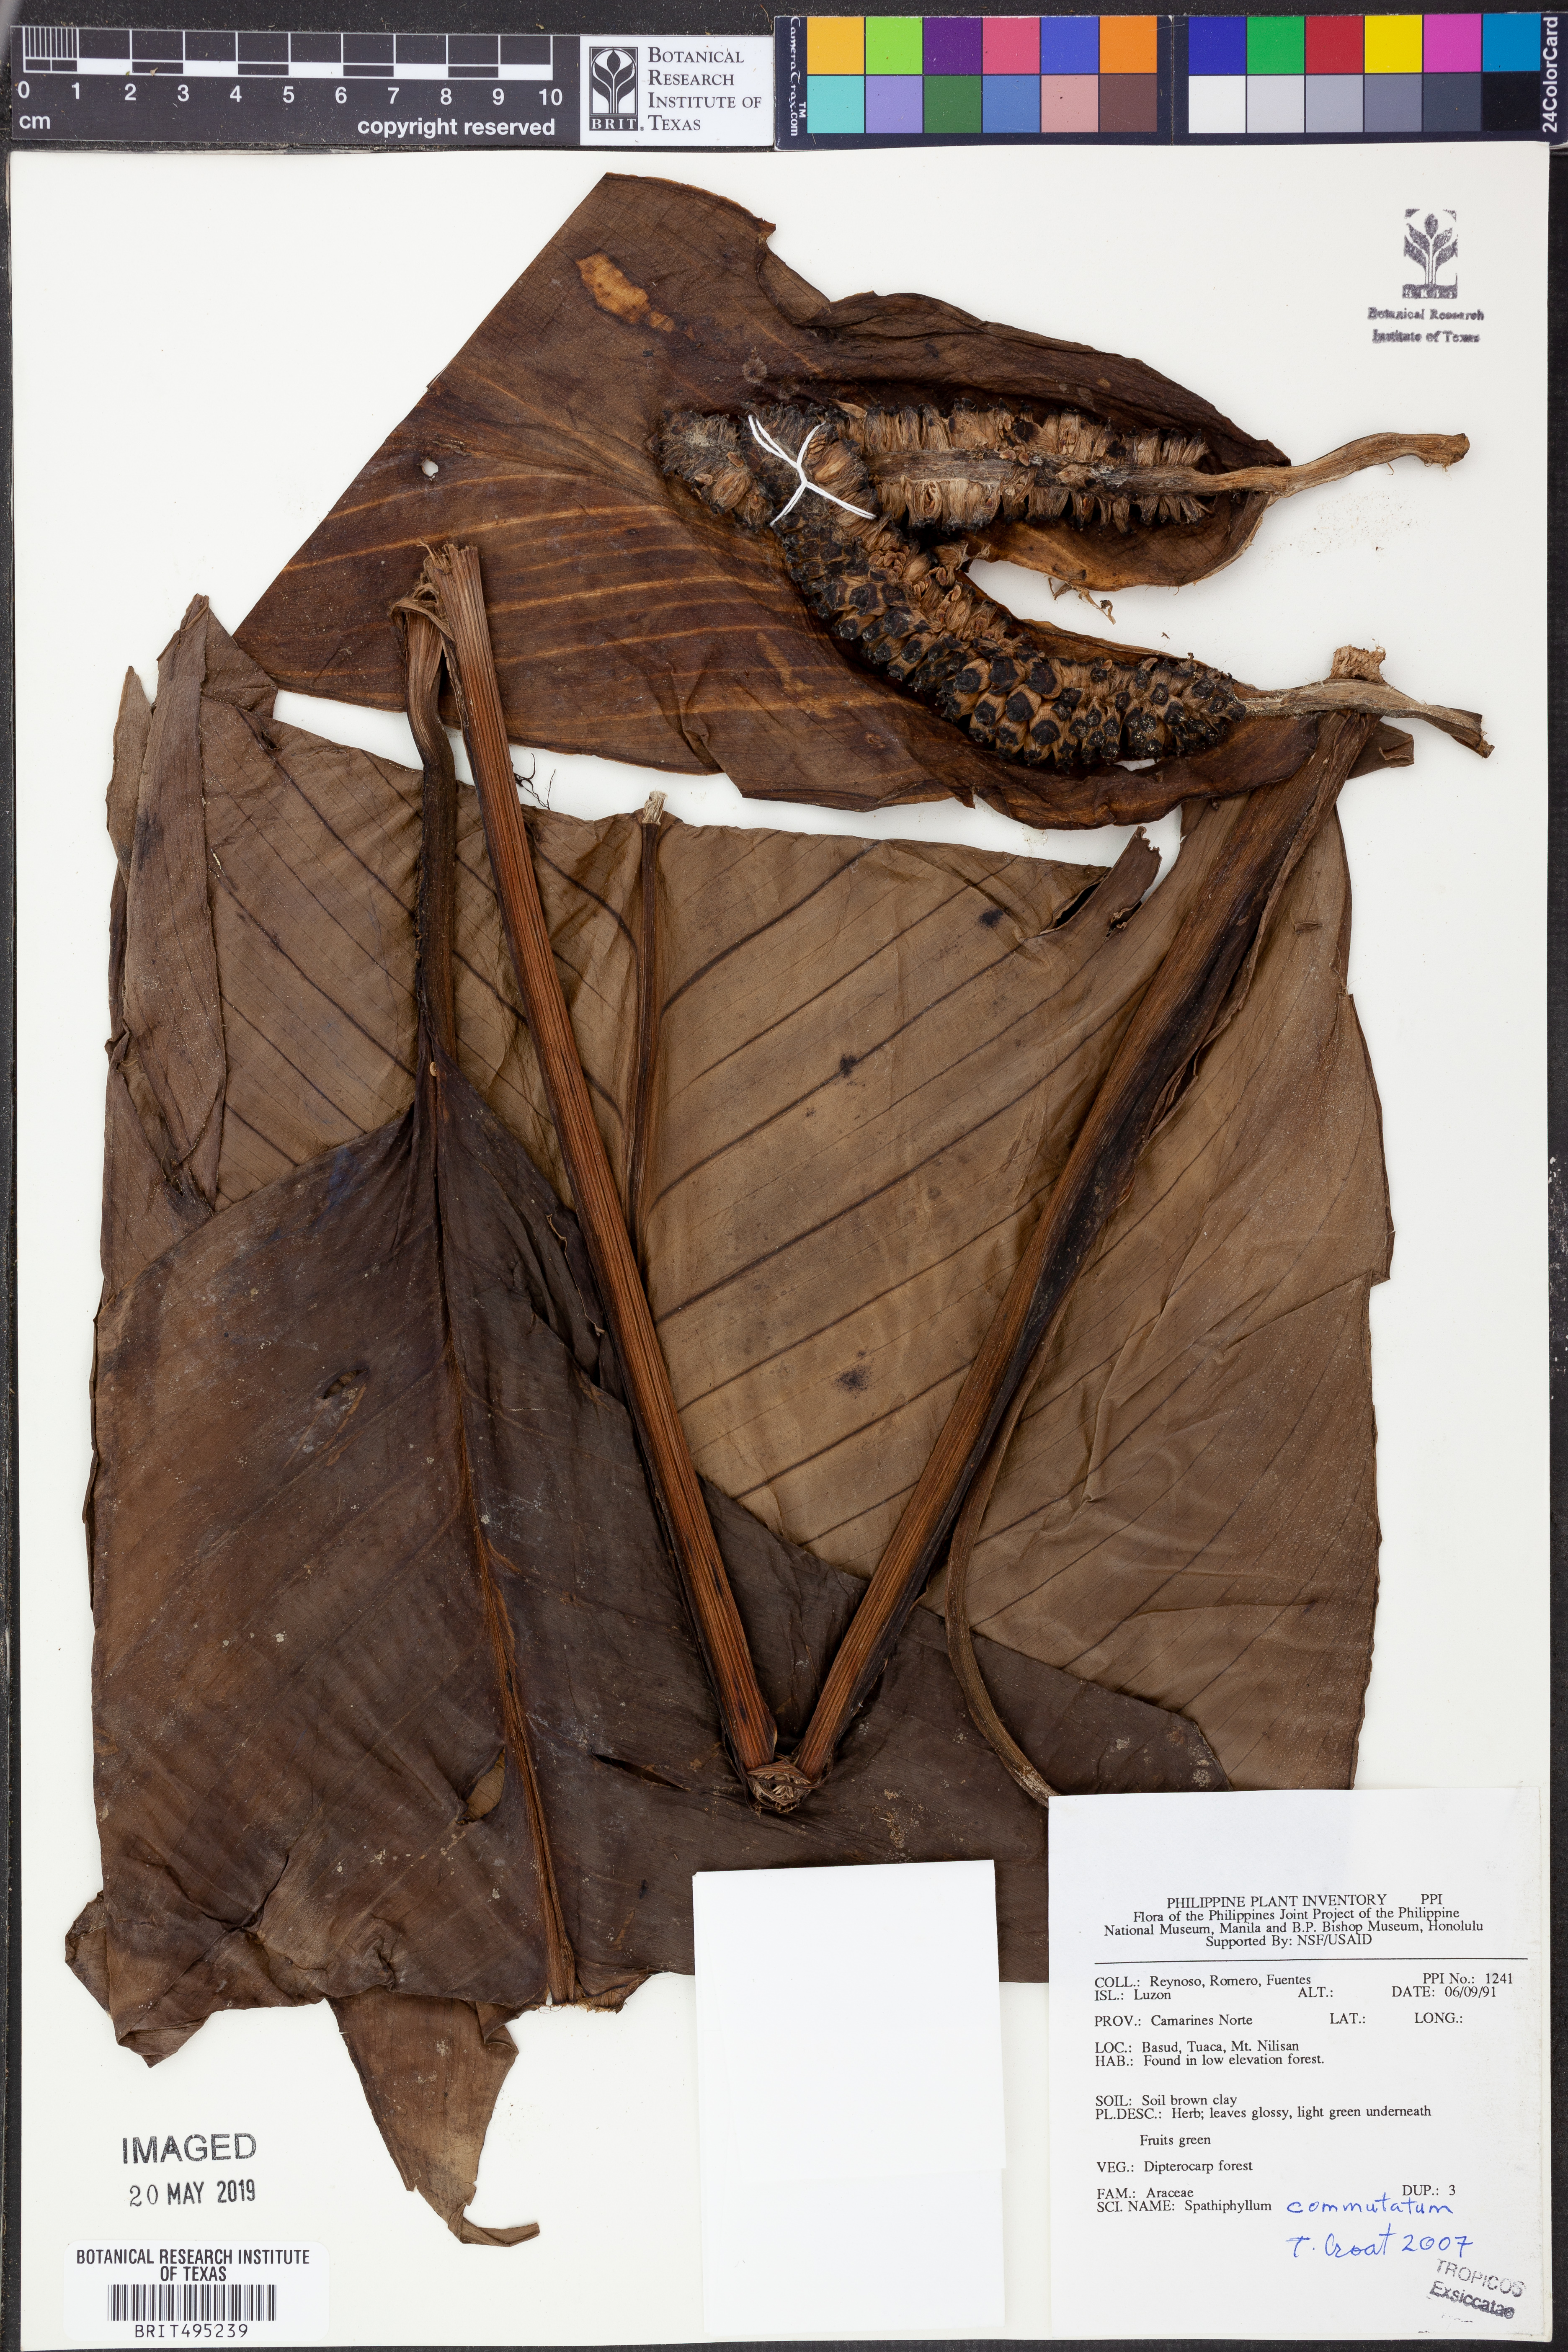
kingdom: Plantae
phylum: Tracheophyta
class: Liliopsida
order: Alismatales
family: Araceae
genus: Spathiphyllum
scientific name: Spathiphyllum commutatum
